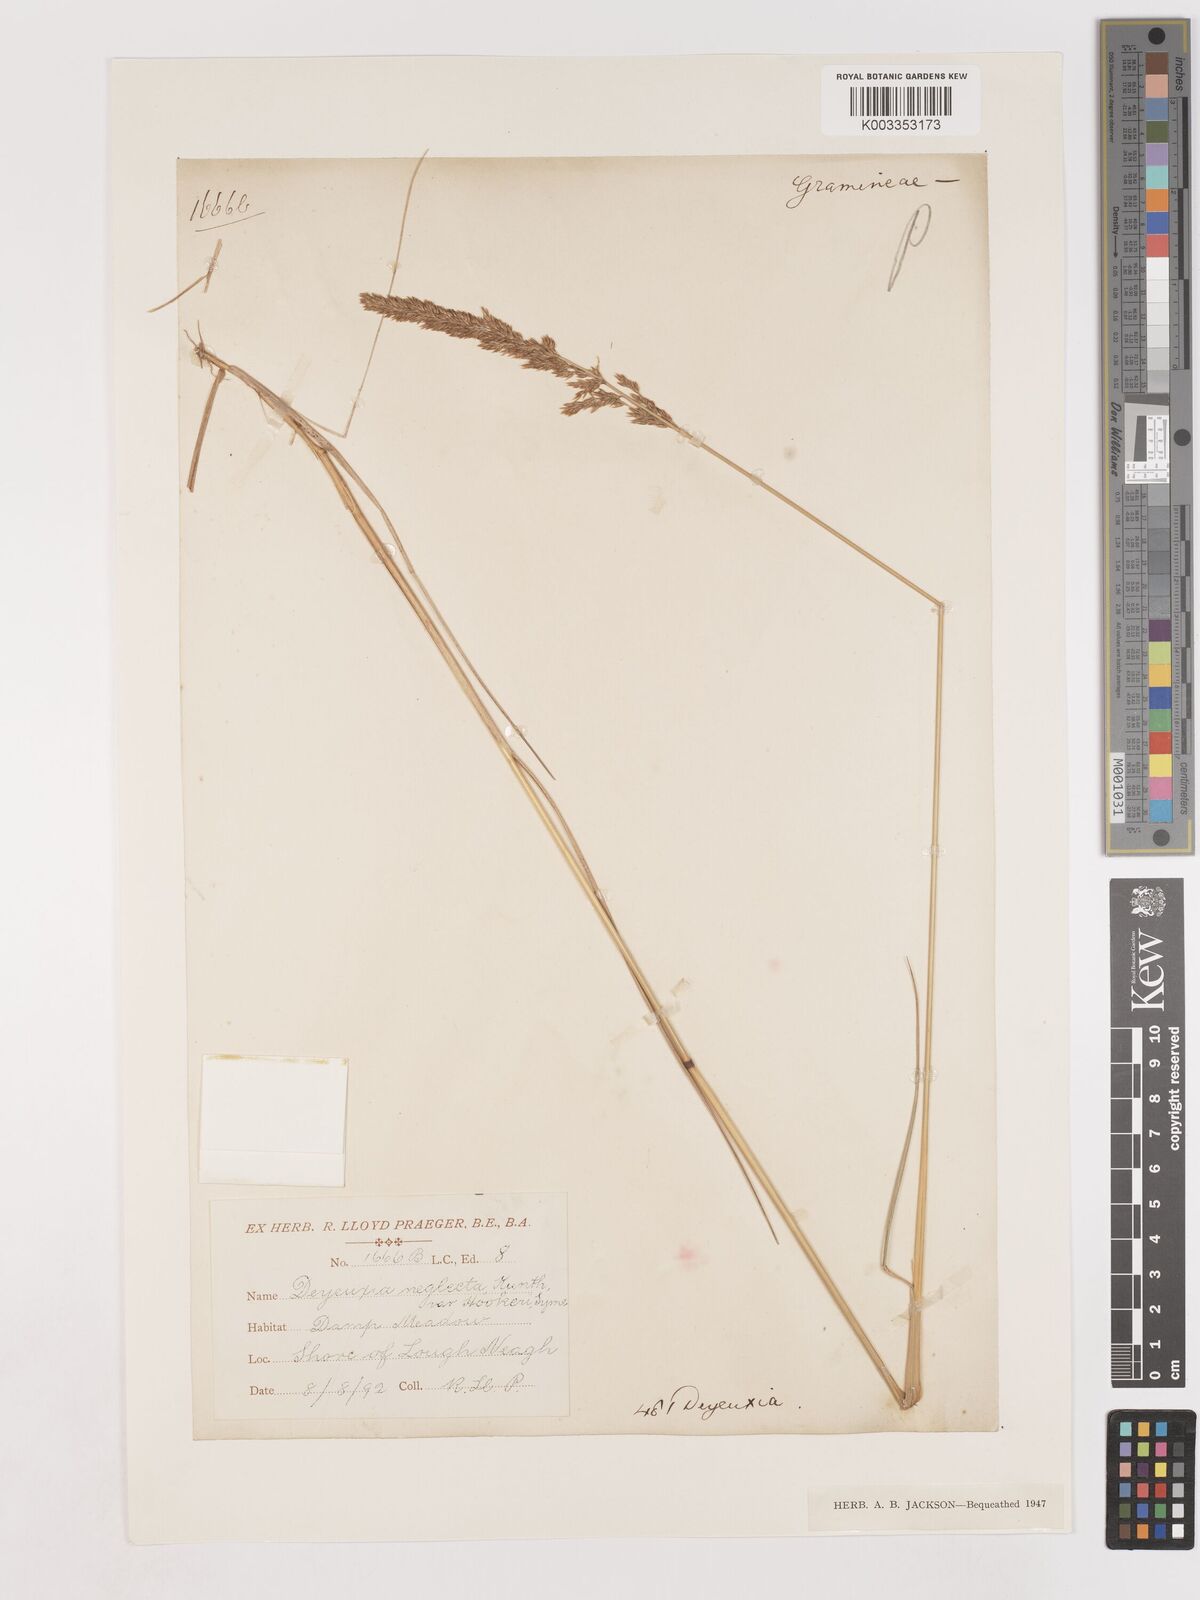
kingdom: Plantae
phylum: Tracheophyta
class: Liliopsida
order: Poales
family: Poaceae
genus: Cinnagrostis
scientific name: Cinnagrostis recta
